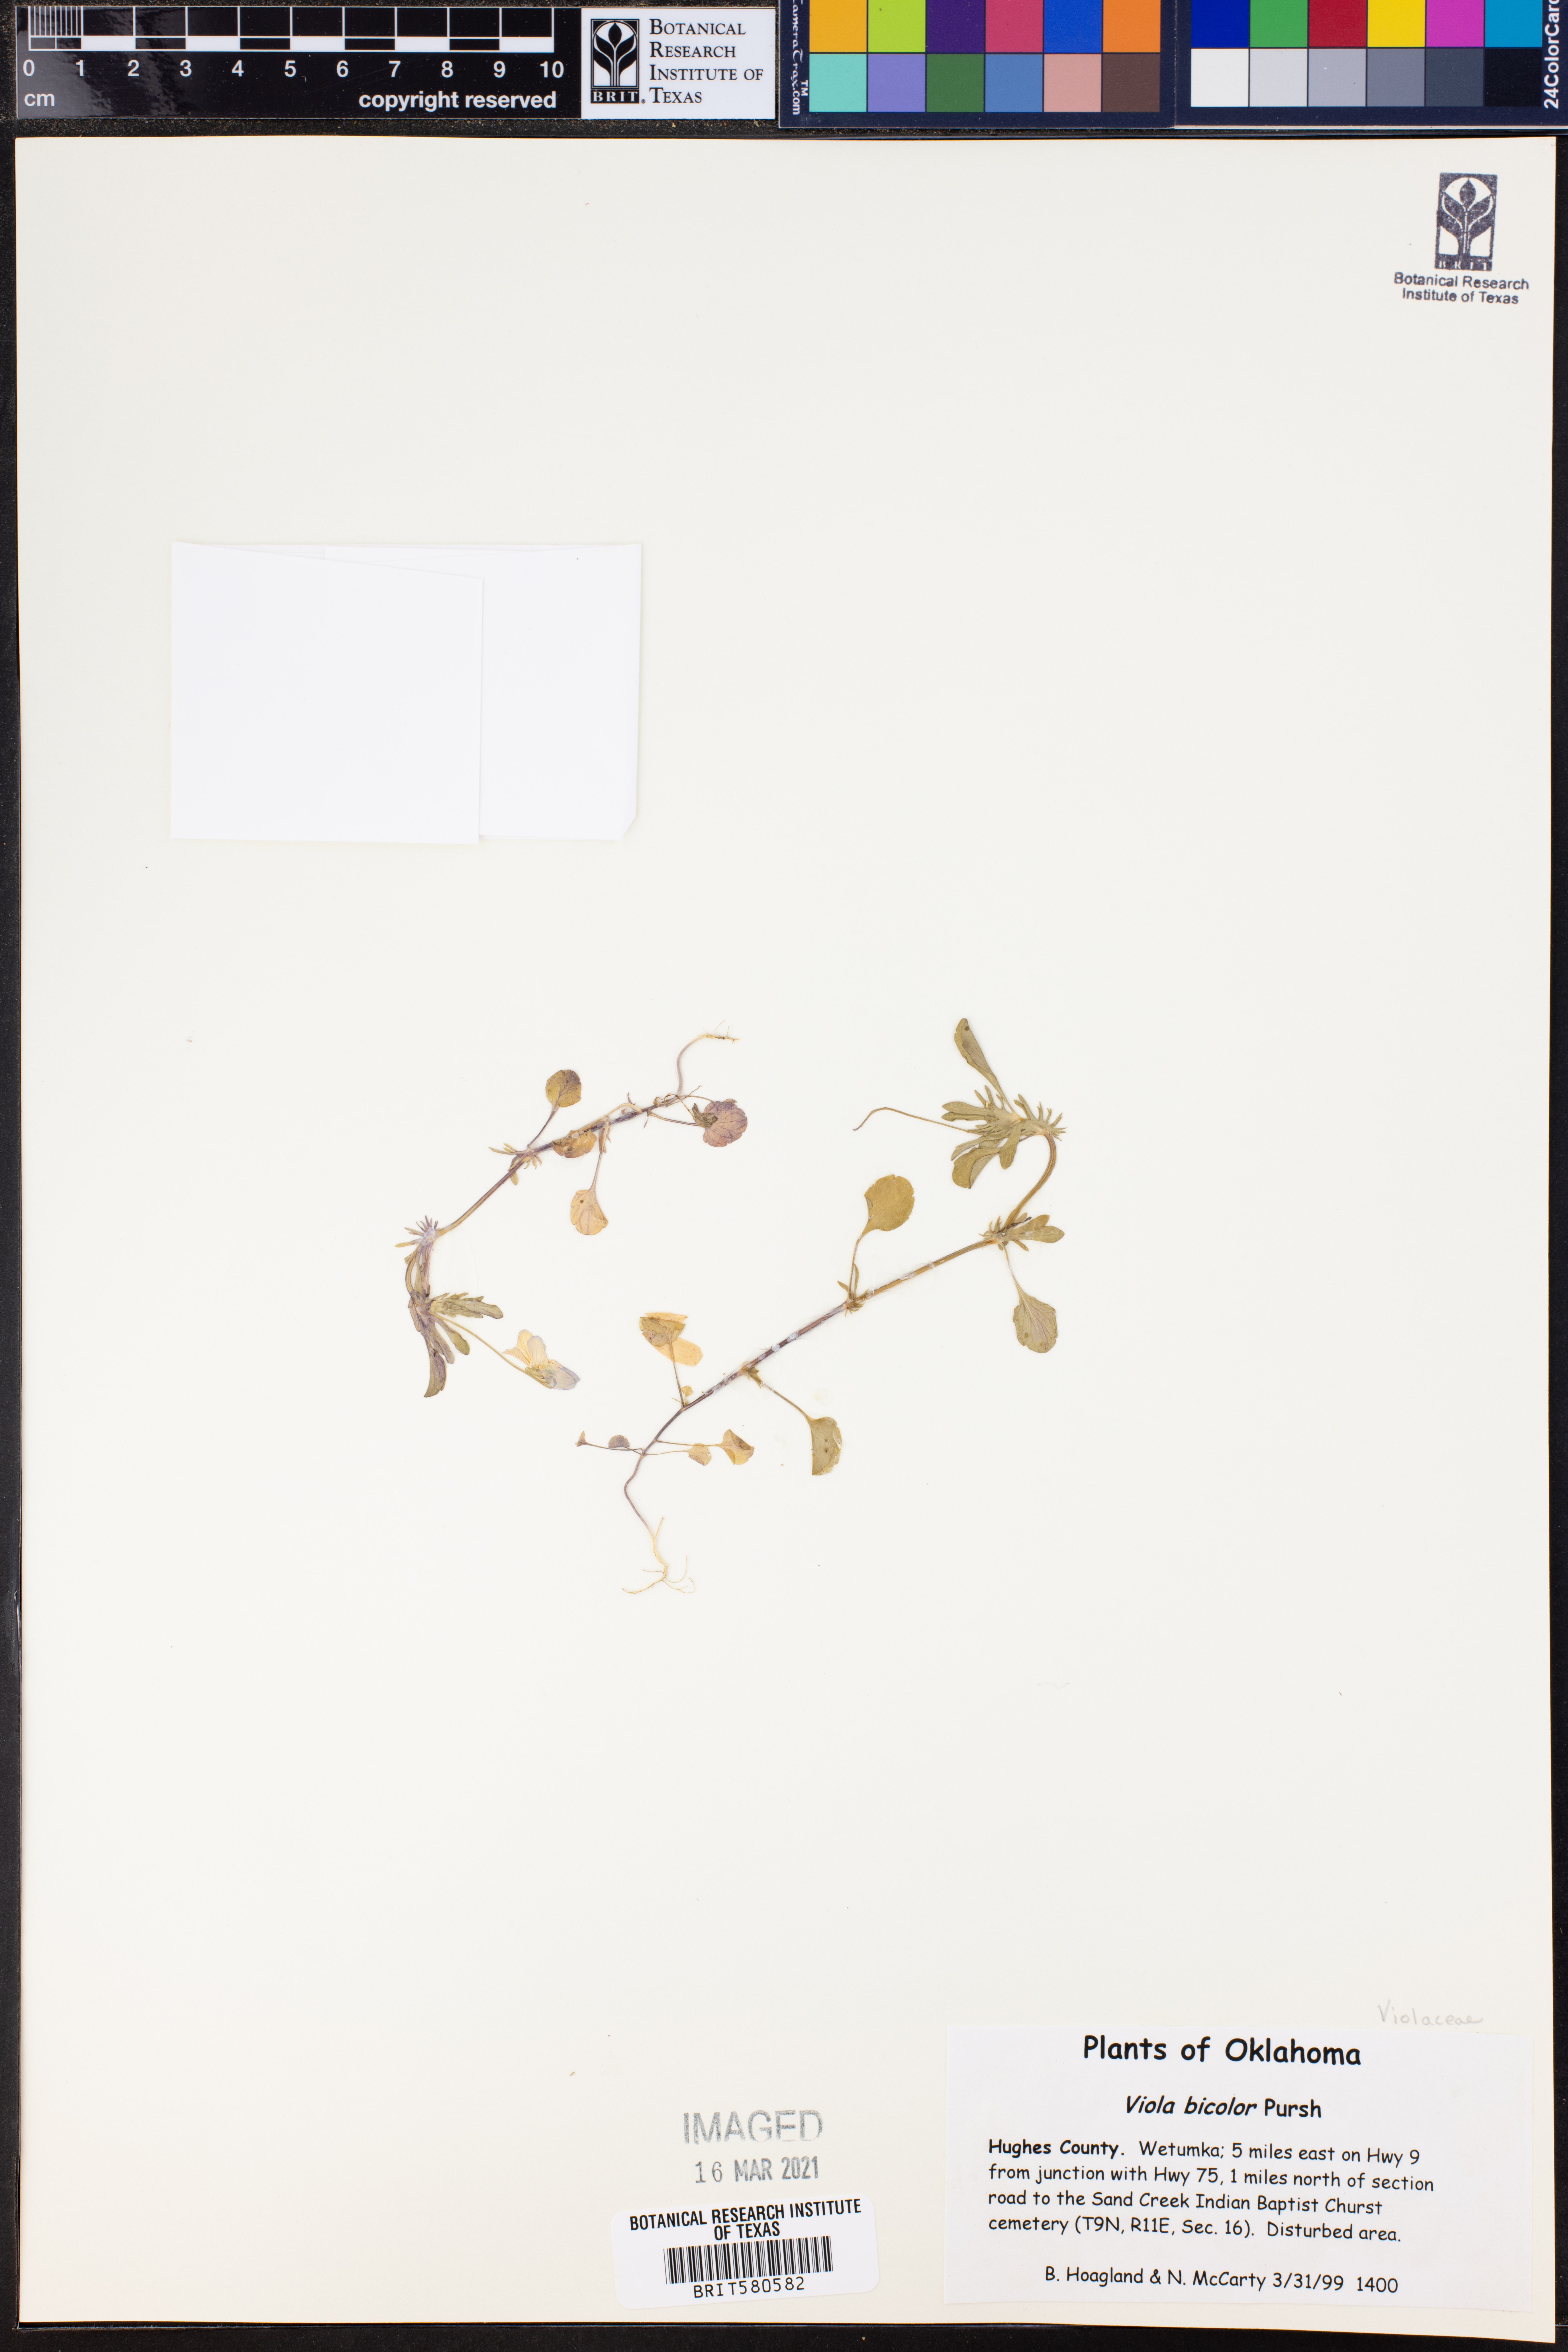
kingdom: Plantae
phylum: Tracheophyta
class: Magnoliopsida
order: Malpighiales
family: Violaceae
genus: Viola
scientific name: Viola rafinesquei
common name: American field pansy
